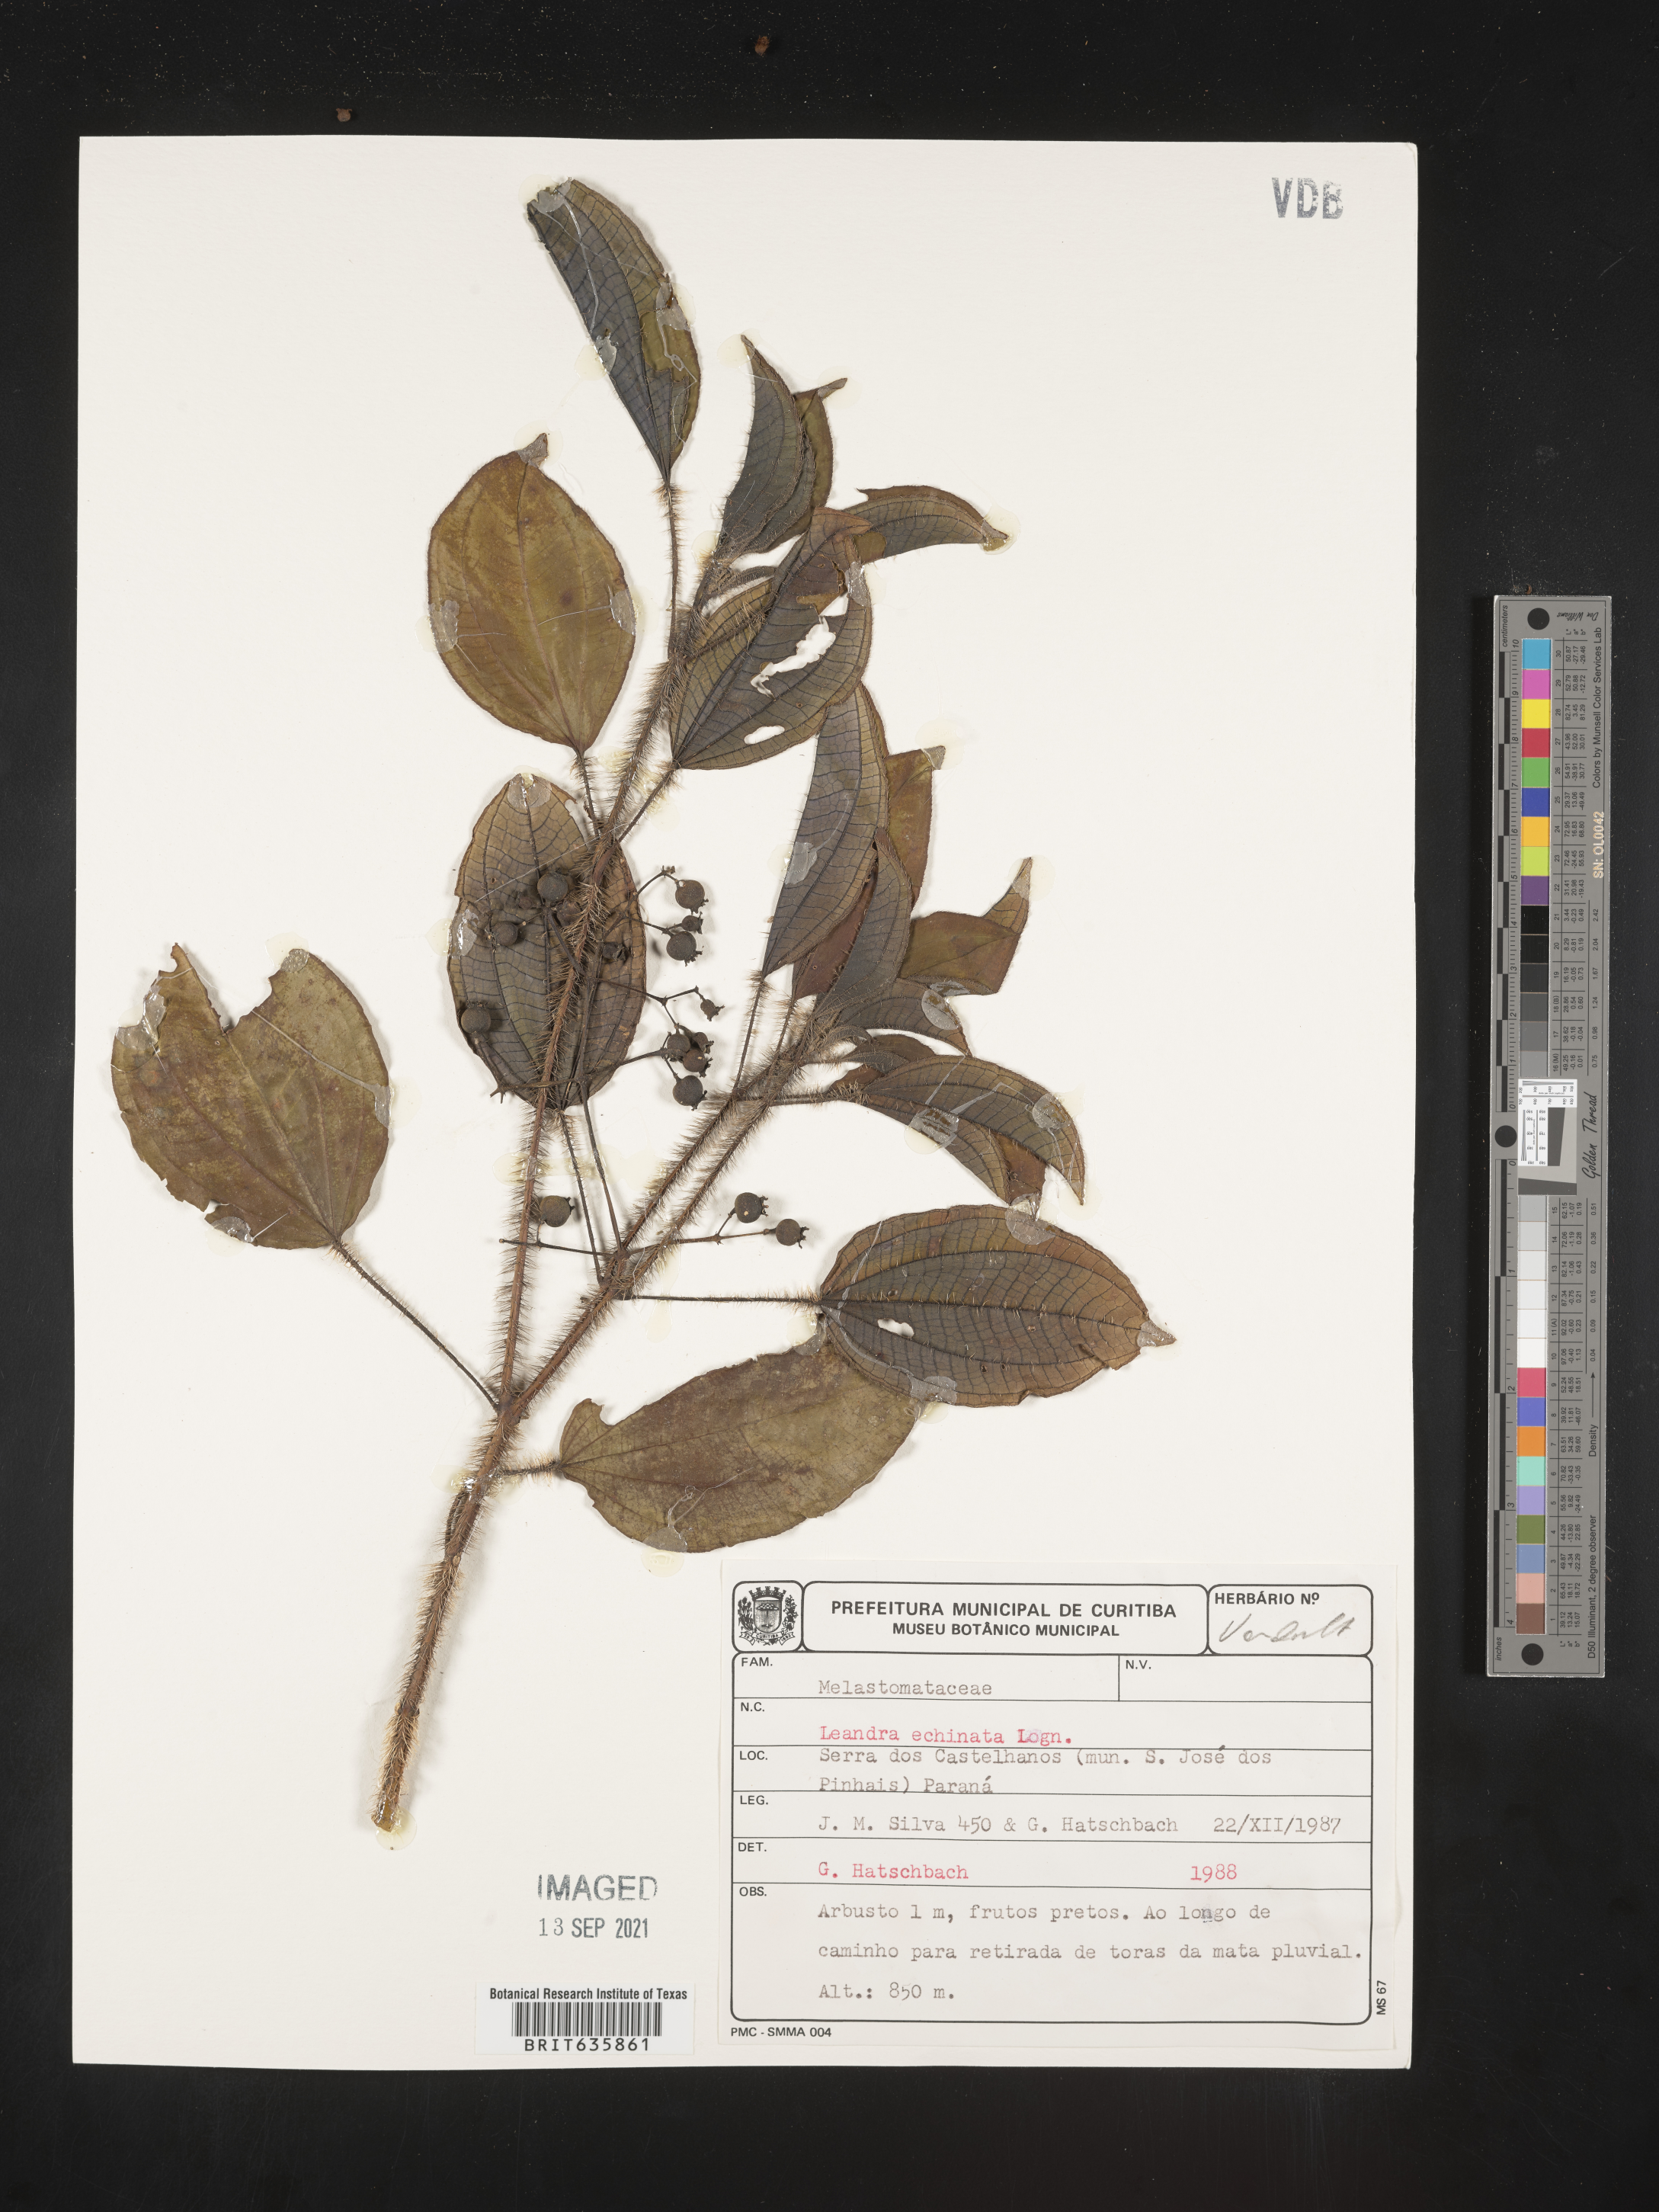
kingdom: Plantae
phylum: Tracheophyta
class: Magnoliopsida
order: Myrtales
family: Melastomataceae
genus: Miconia
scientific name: Miconia
